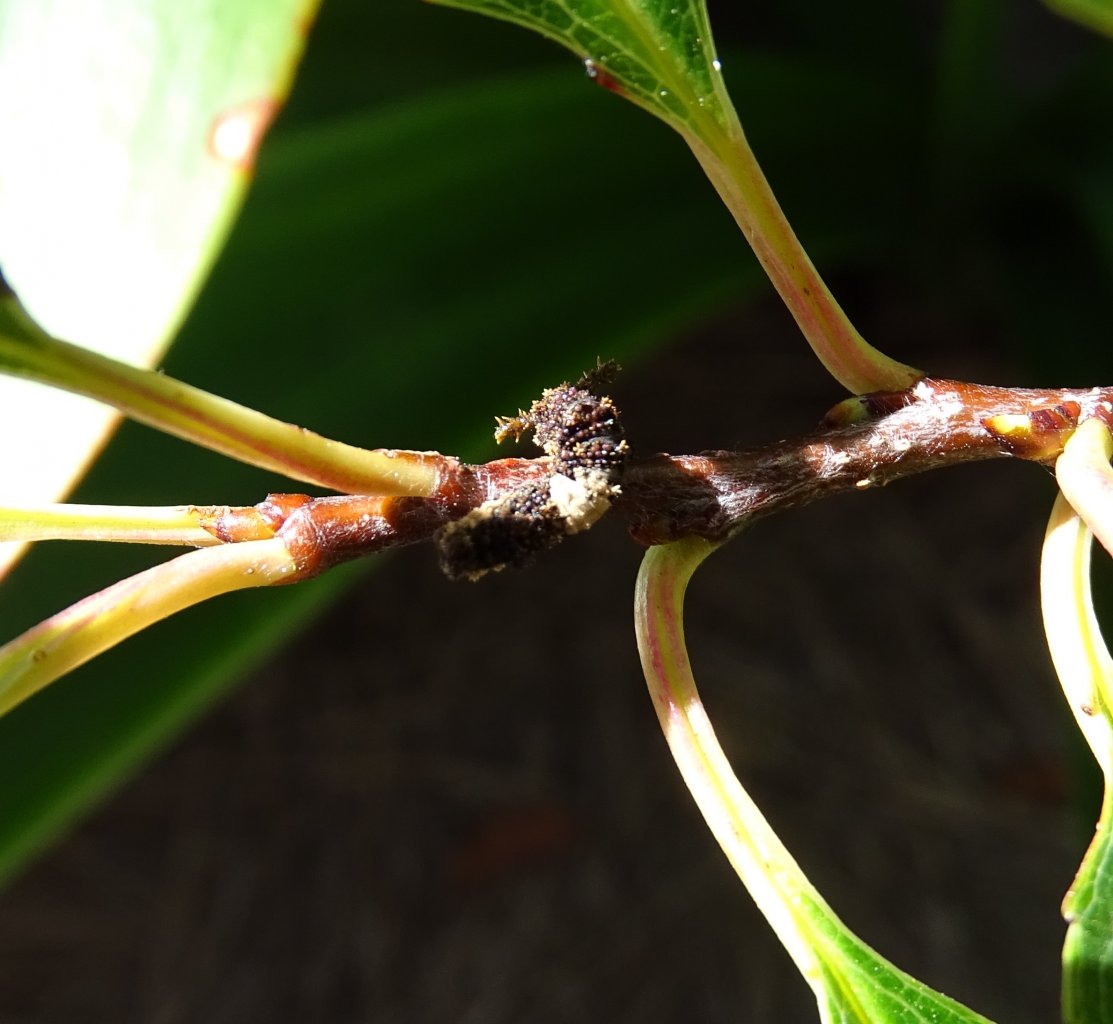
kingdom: Animalia
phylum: Arthropoda
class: Insecta
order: Lepidoptera
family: Nymphalidae
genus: Limenitis
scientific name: Limenitis astyanax
